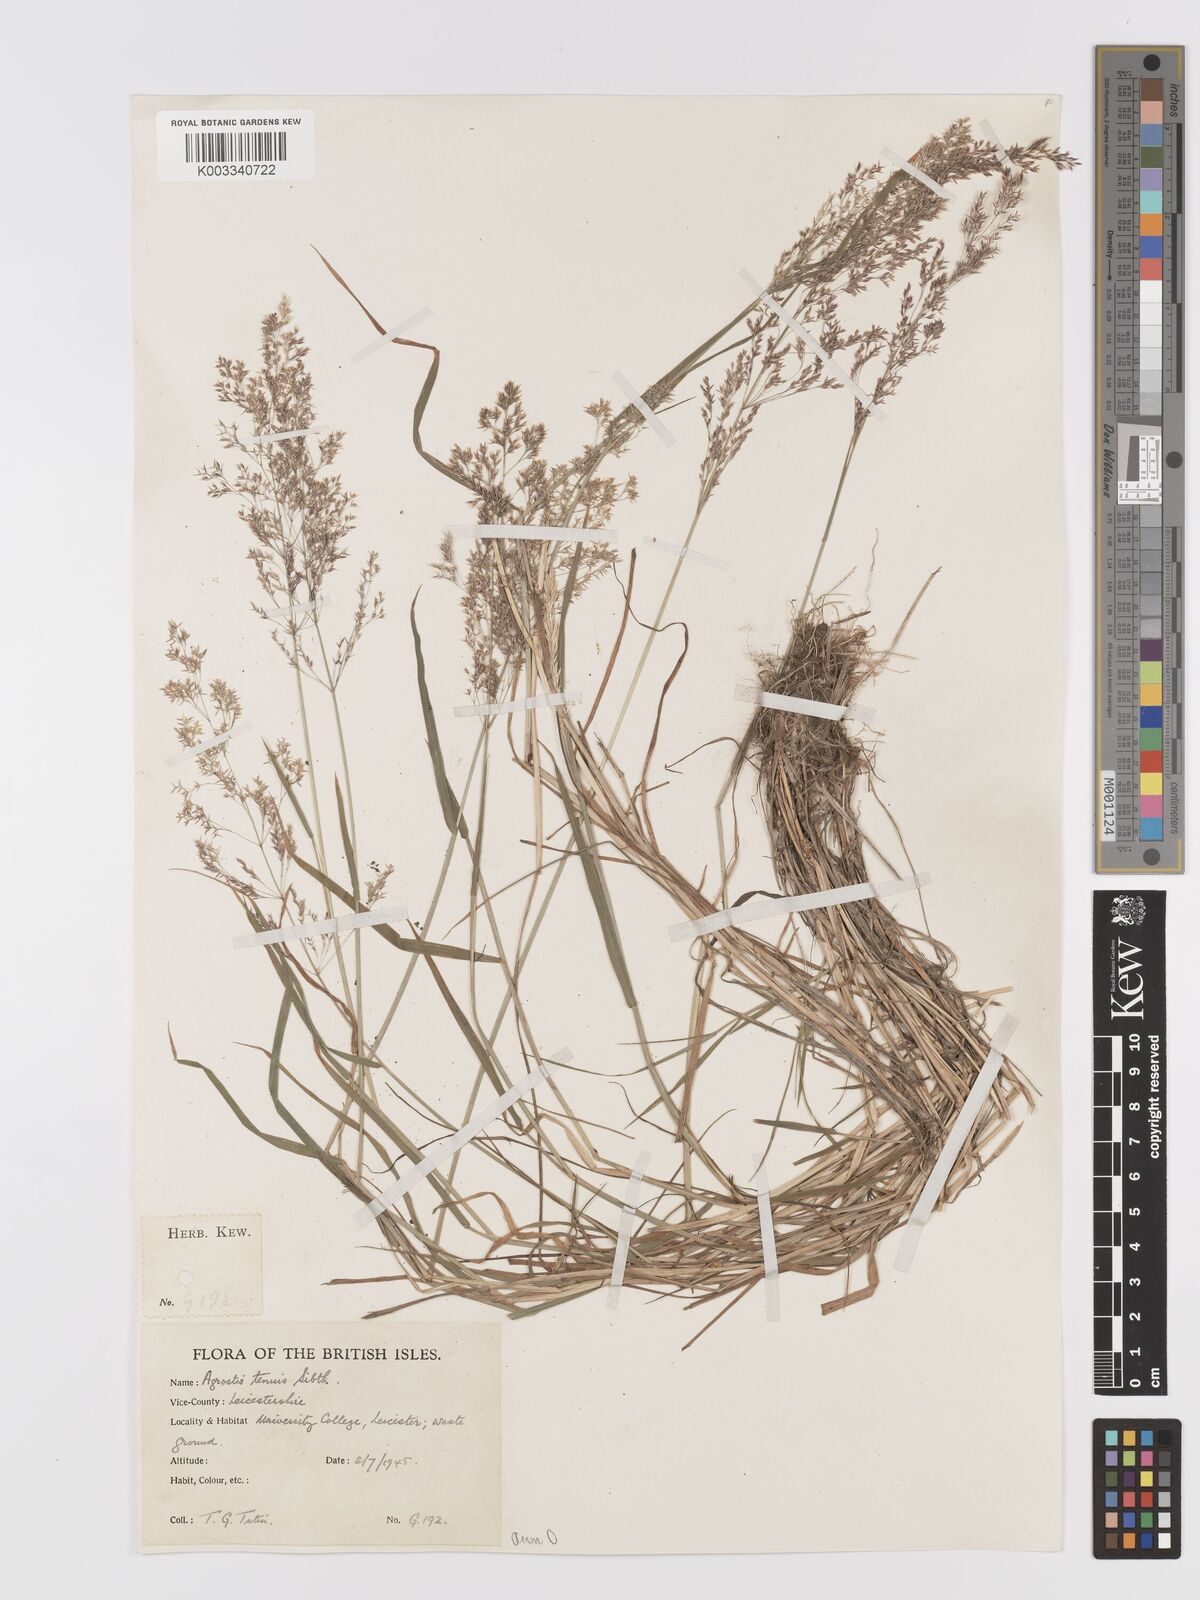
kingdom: Plantae
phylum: Tracheophyta
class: Liliopsida
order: Poales
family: Poaceae
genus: Agrostis
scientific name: Agrostis capillaris
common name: Colonial bentgrass
